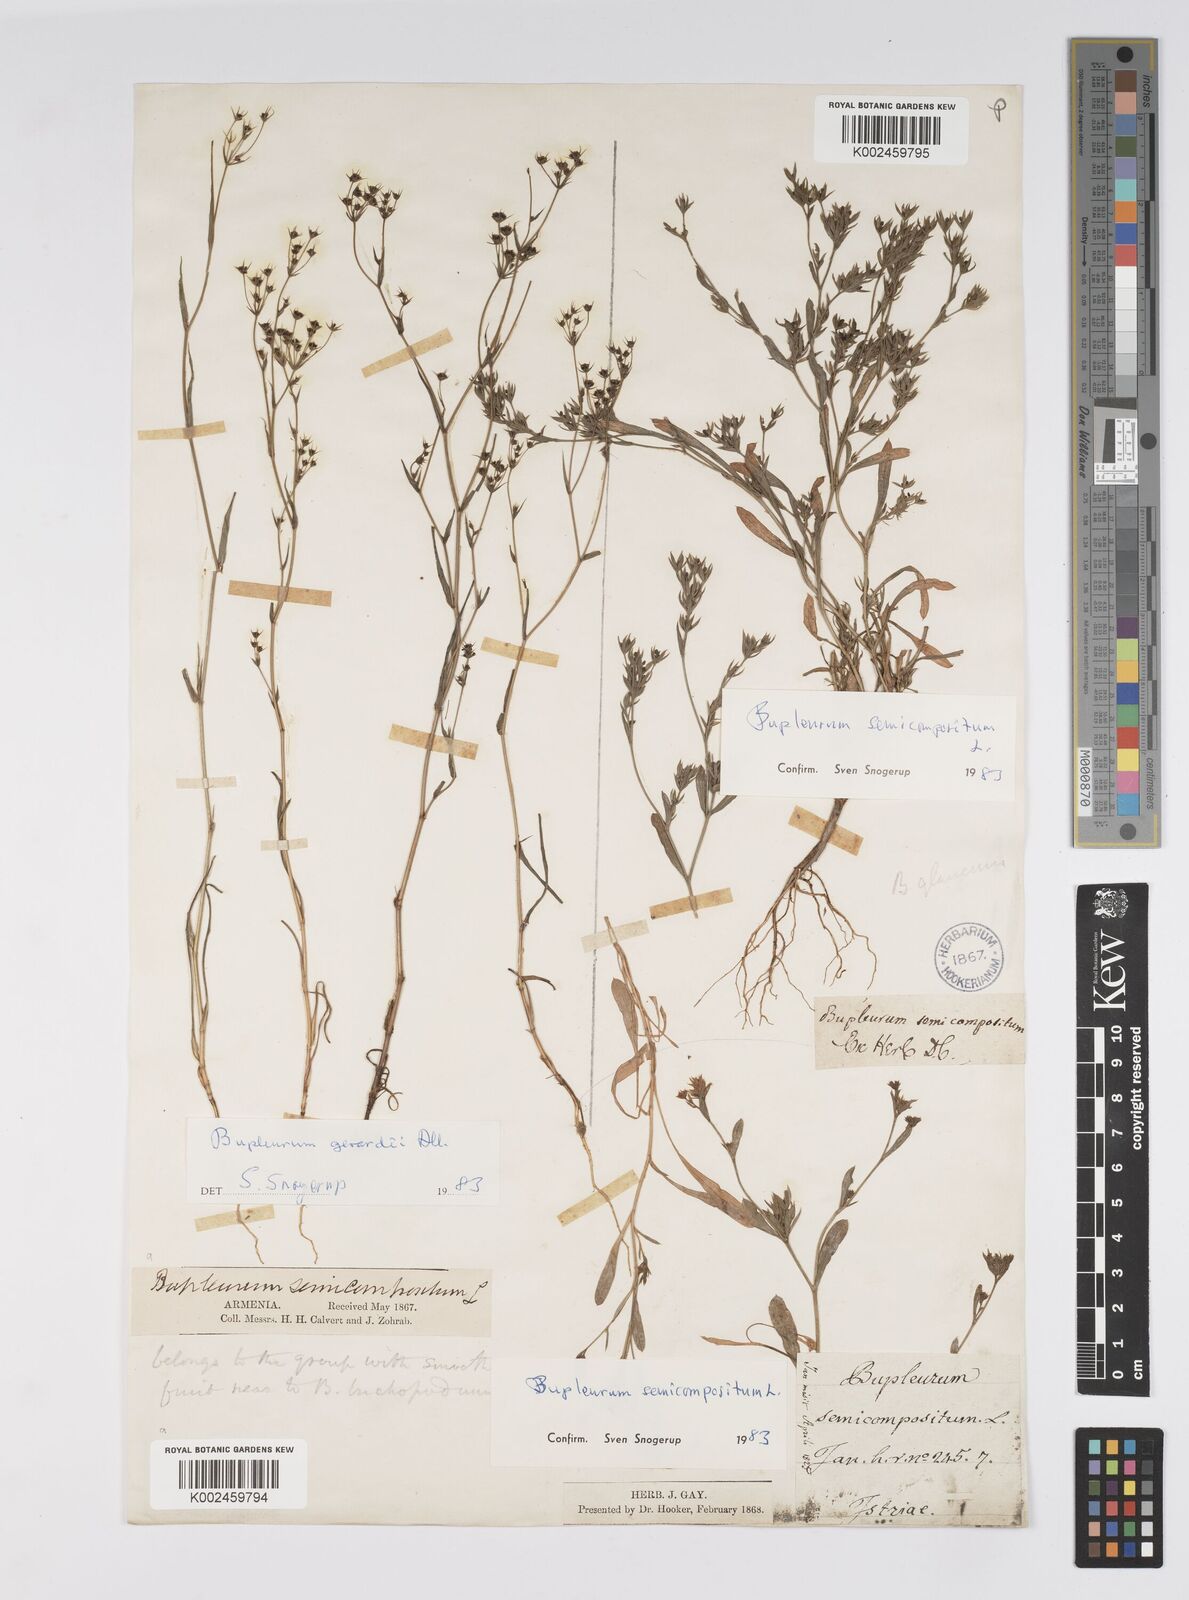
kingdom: Plantae
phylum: Tracheophyta
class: Magnoliopsida
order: Apiales
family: Apiaceae
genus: Bupleurum
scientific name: Bupleurum semicompositum
